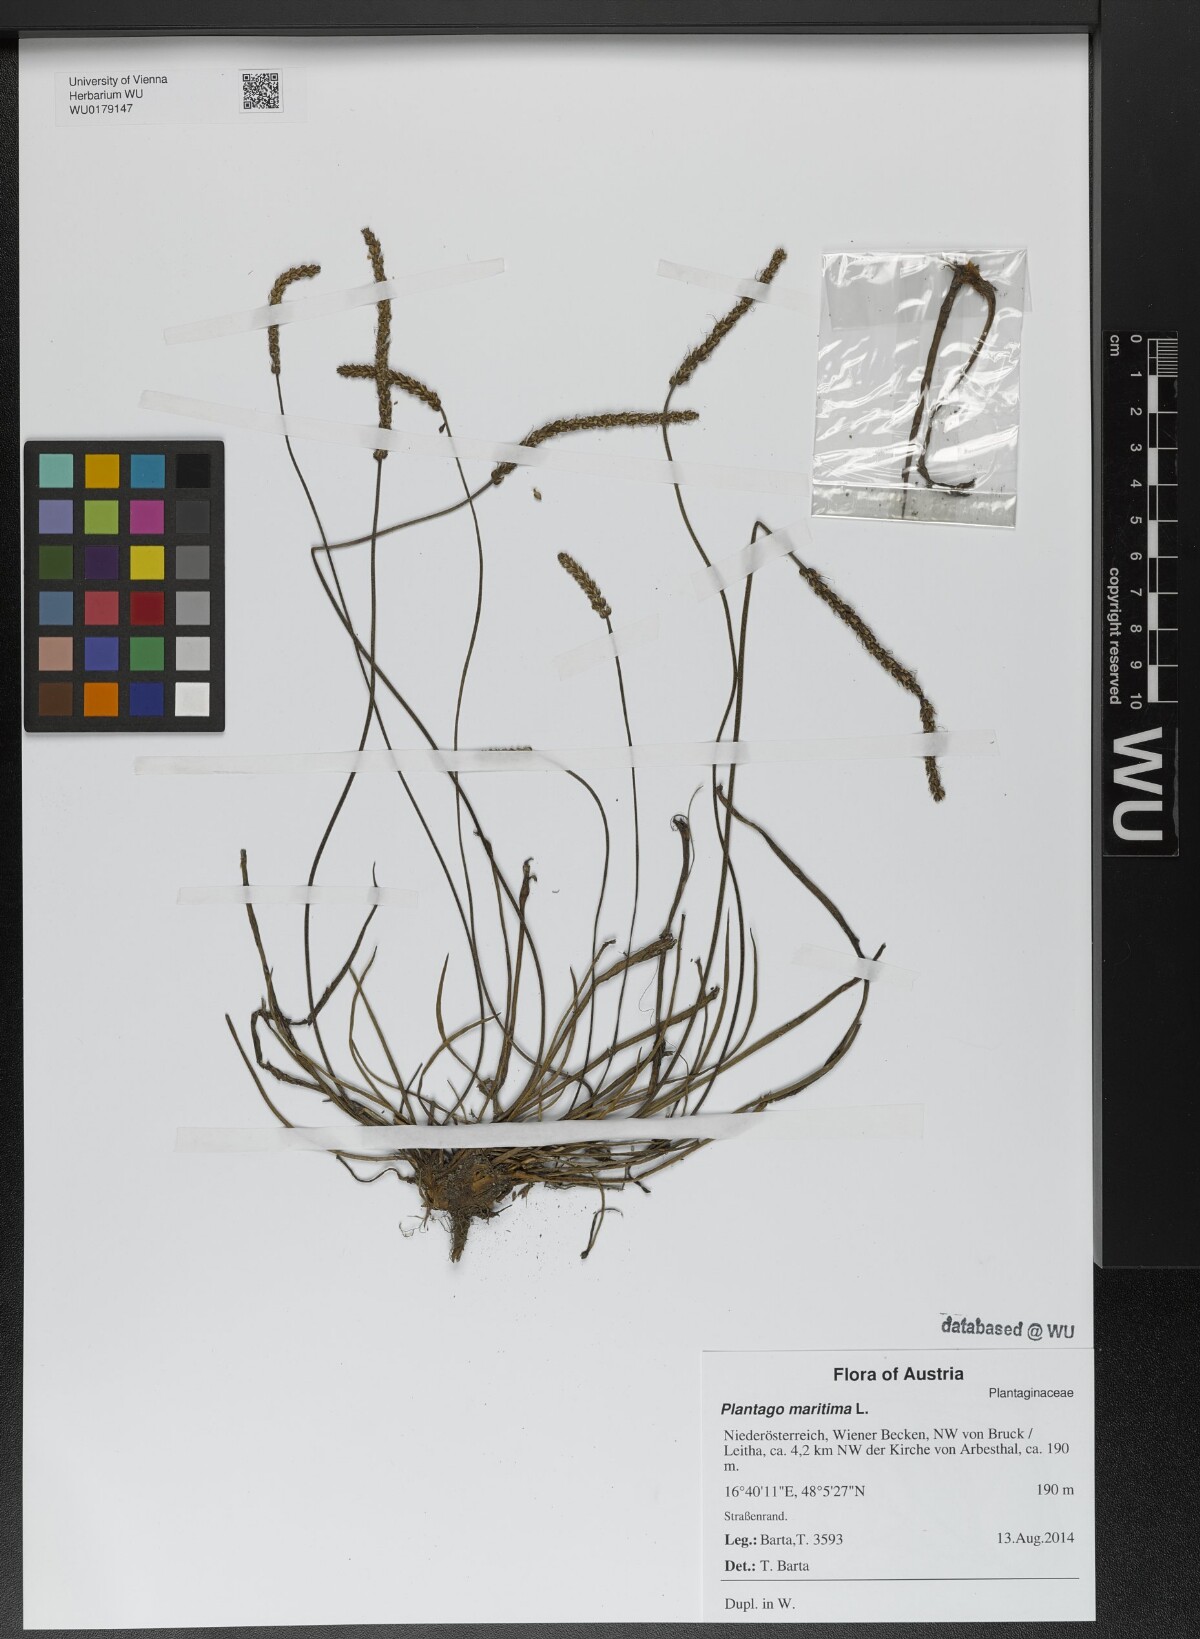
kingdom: Plantae
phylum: Tracheophyta
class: Magnoliopsida
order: Lamiales
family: Plantaginaceae
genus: Plantago
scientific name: Plantago maritima
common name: Sea plantain
